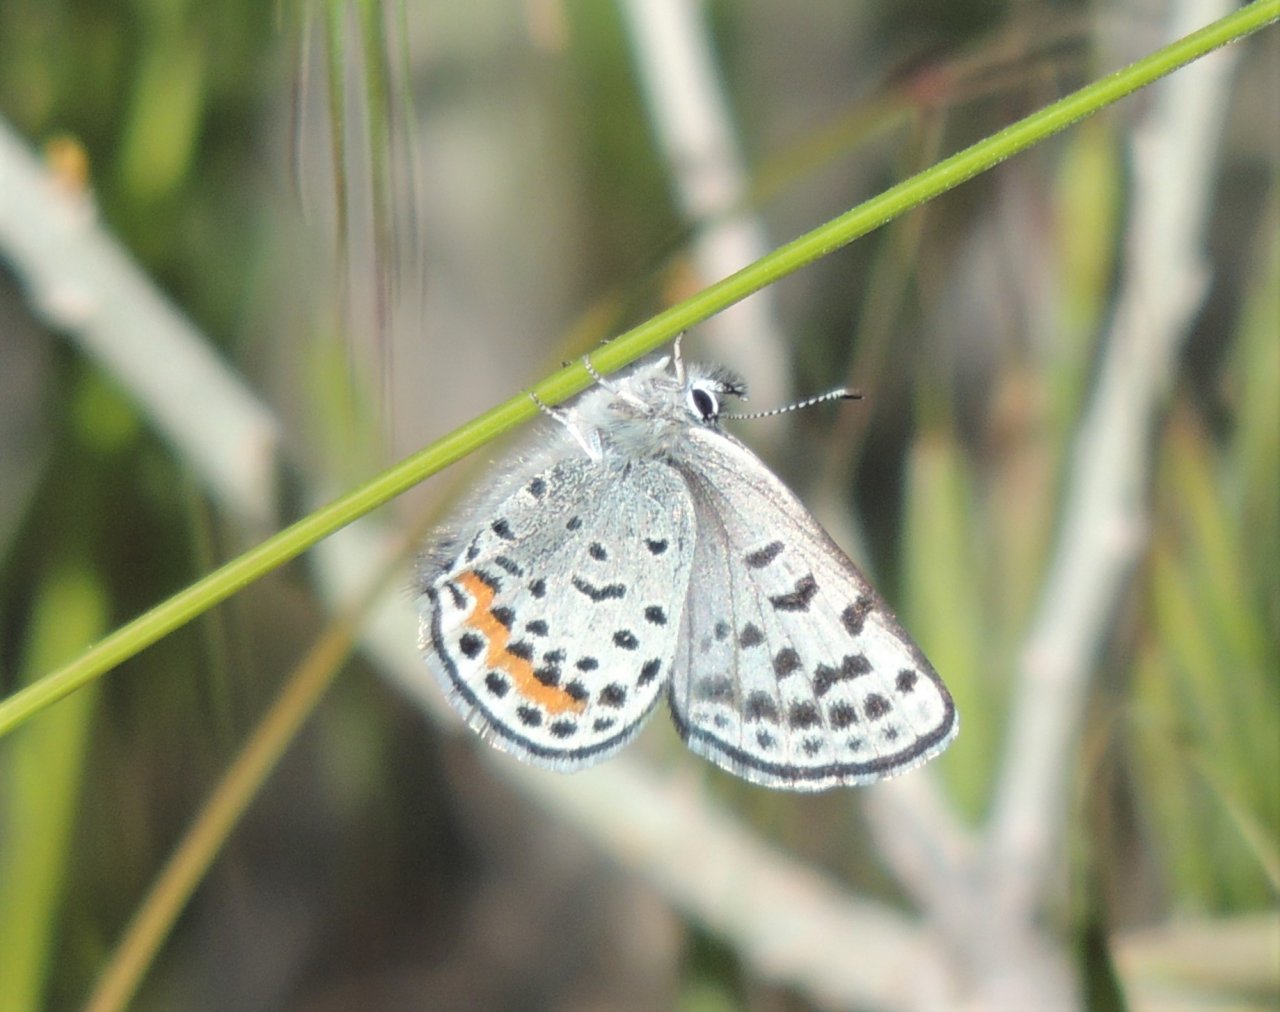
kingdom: Animalia
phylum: Arthropoda
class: Insecta
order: Lepidoptera
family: Lycaenidae
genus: Euphilotes
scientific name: Euphilotes battoides
